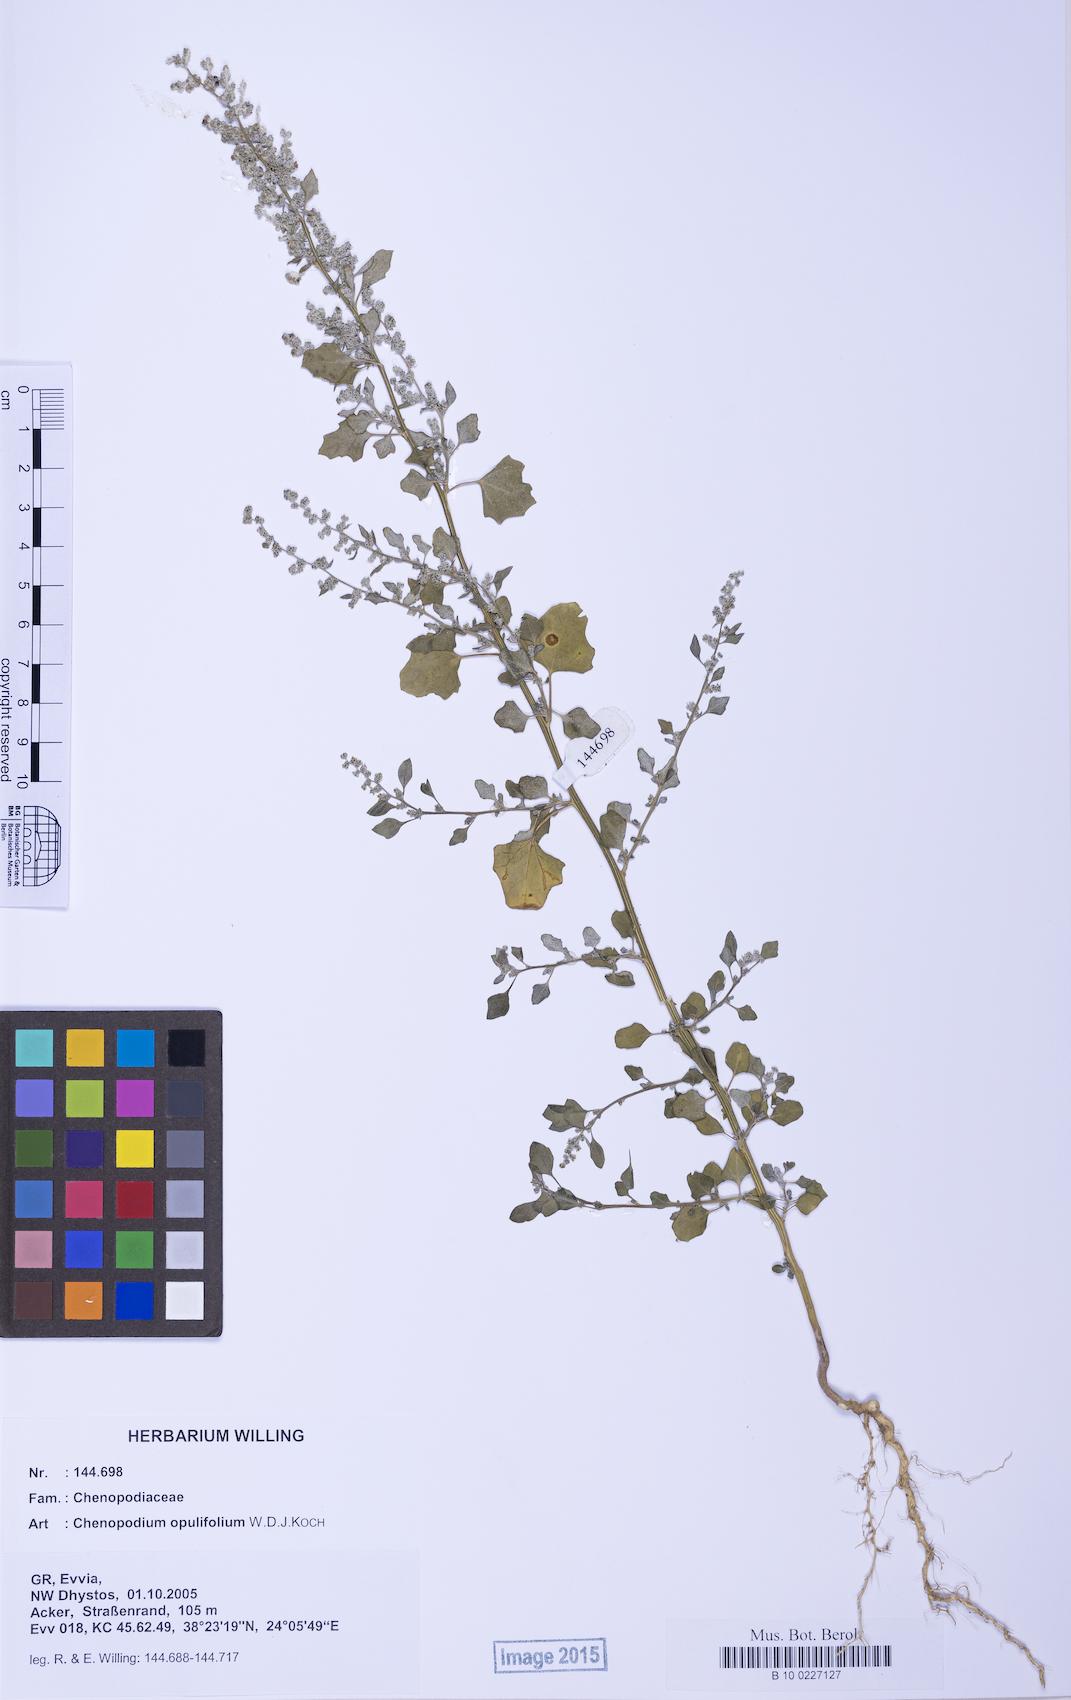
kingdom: Plantae
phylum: Tracheophyta
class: Magnoliopsida
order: Caryophyllales
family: Amaranthaceae
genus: Chenopodium
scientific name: Chenopodium opulifolium
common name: Grey goosefoot
